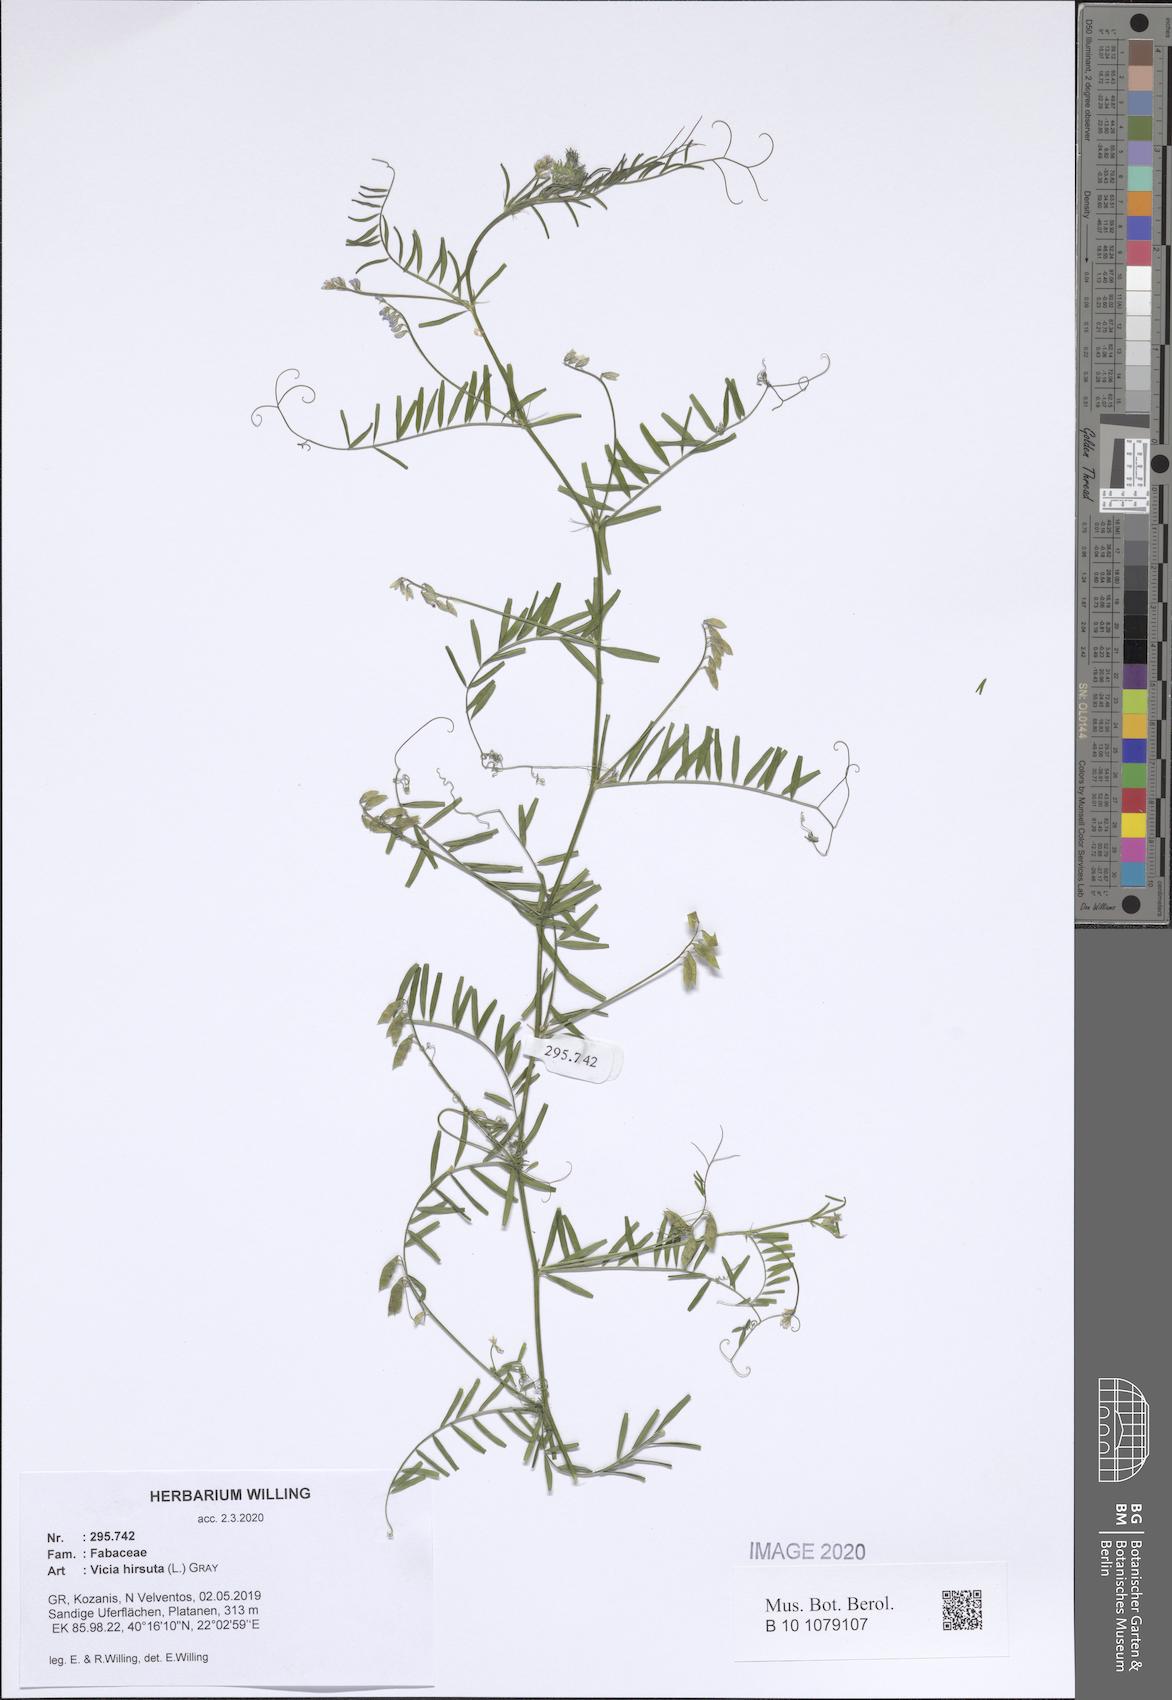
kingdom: Plantae
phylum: Tracheophyta
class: Magnoliopsida
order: Fabales
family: Fabaceae
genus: Vicia
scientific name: Vicia hirsuta
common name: Tiny vetch
